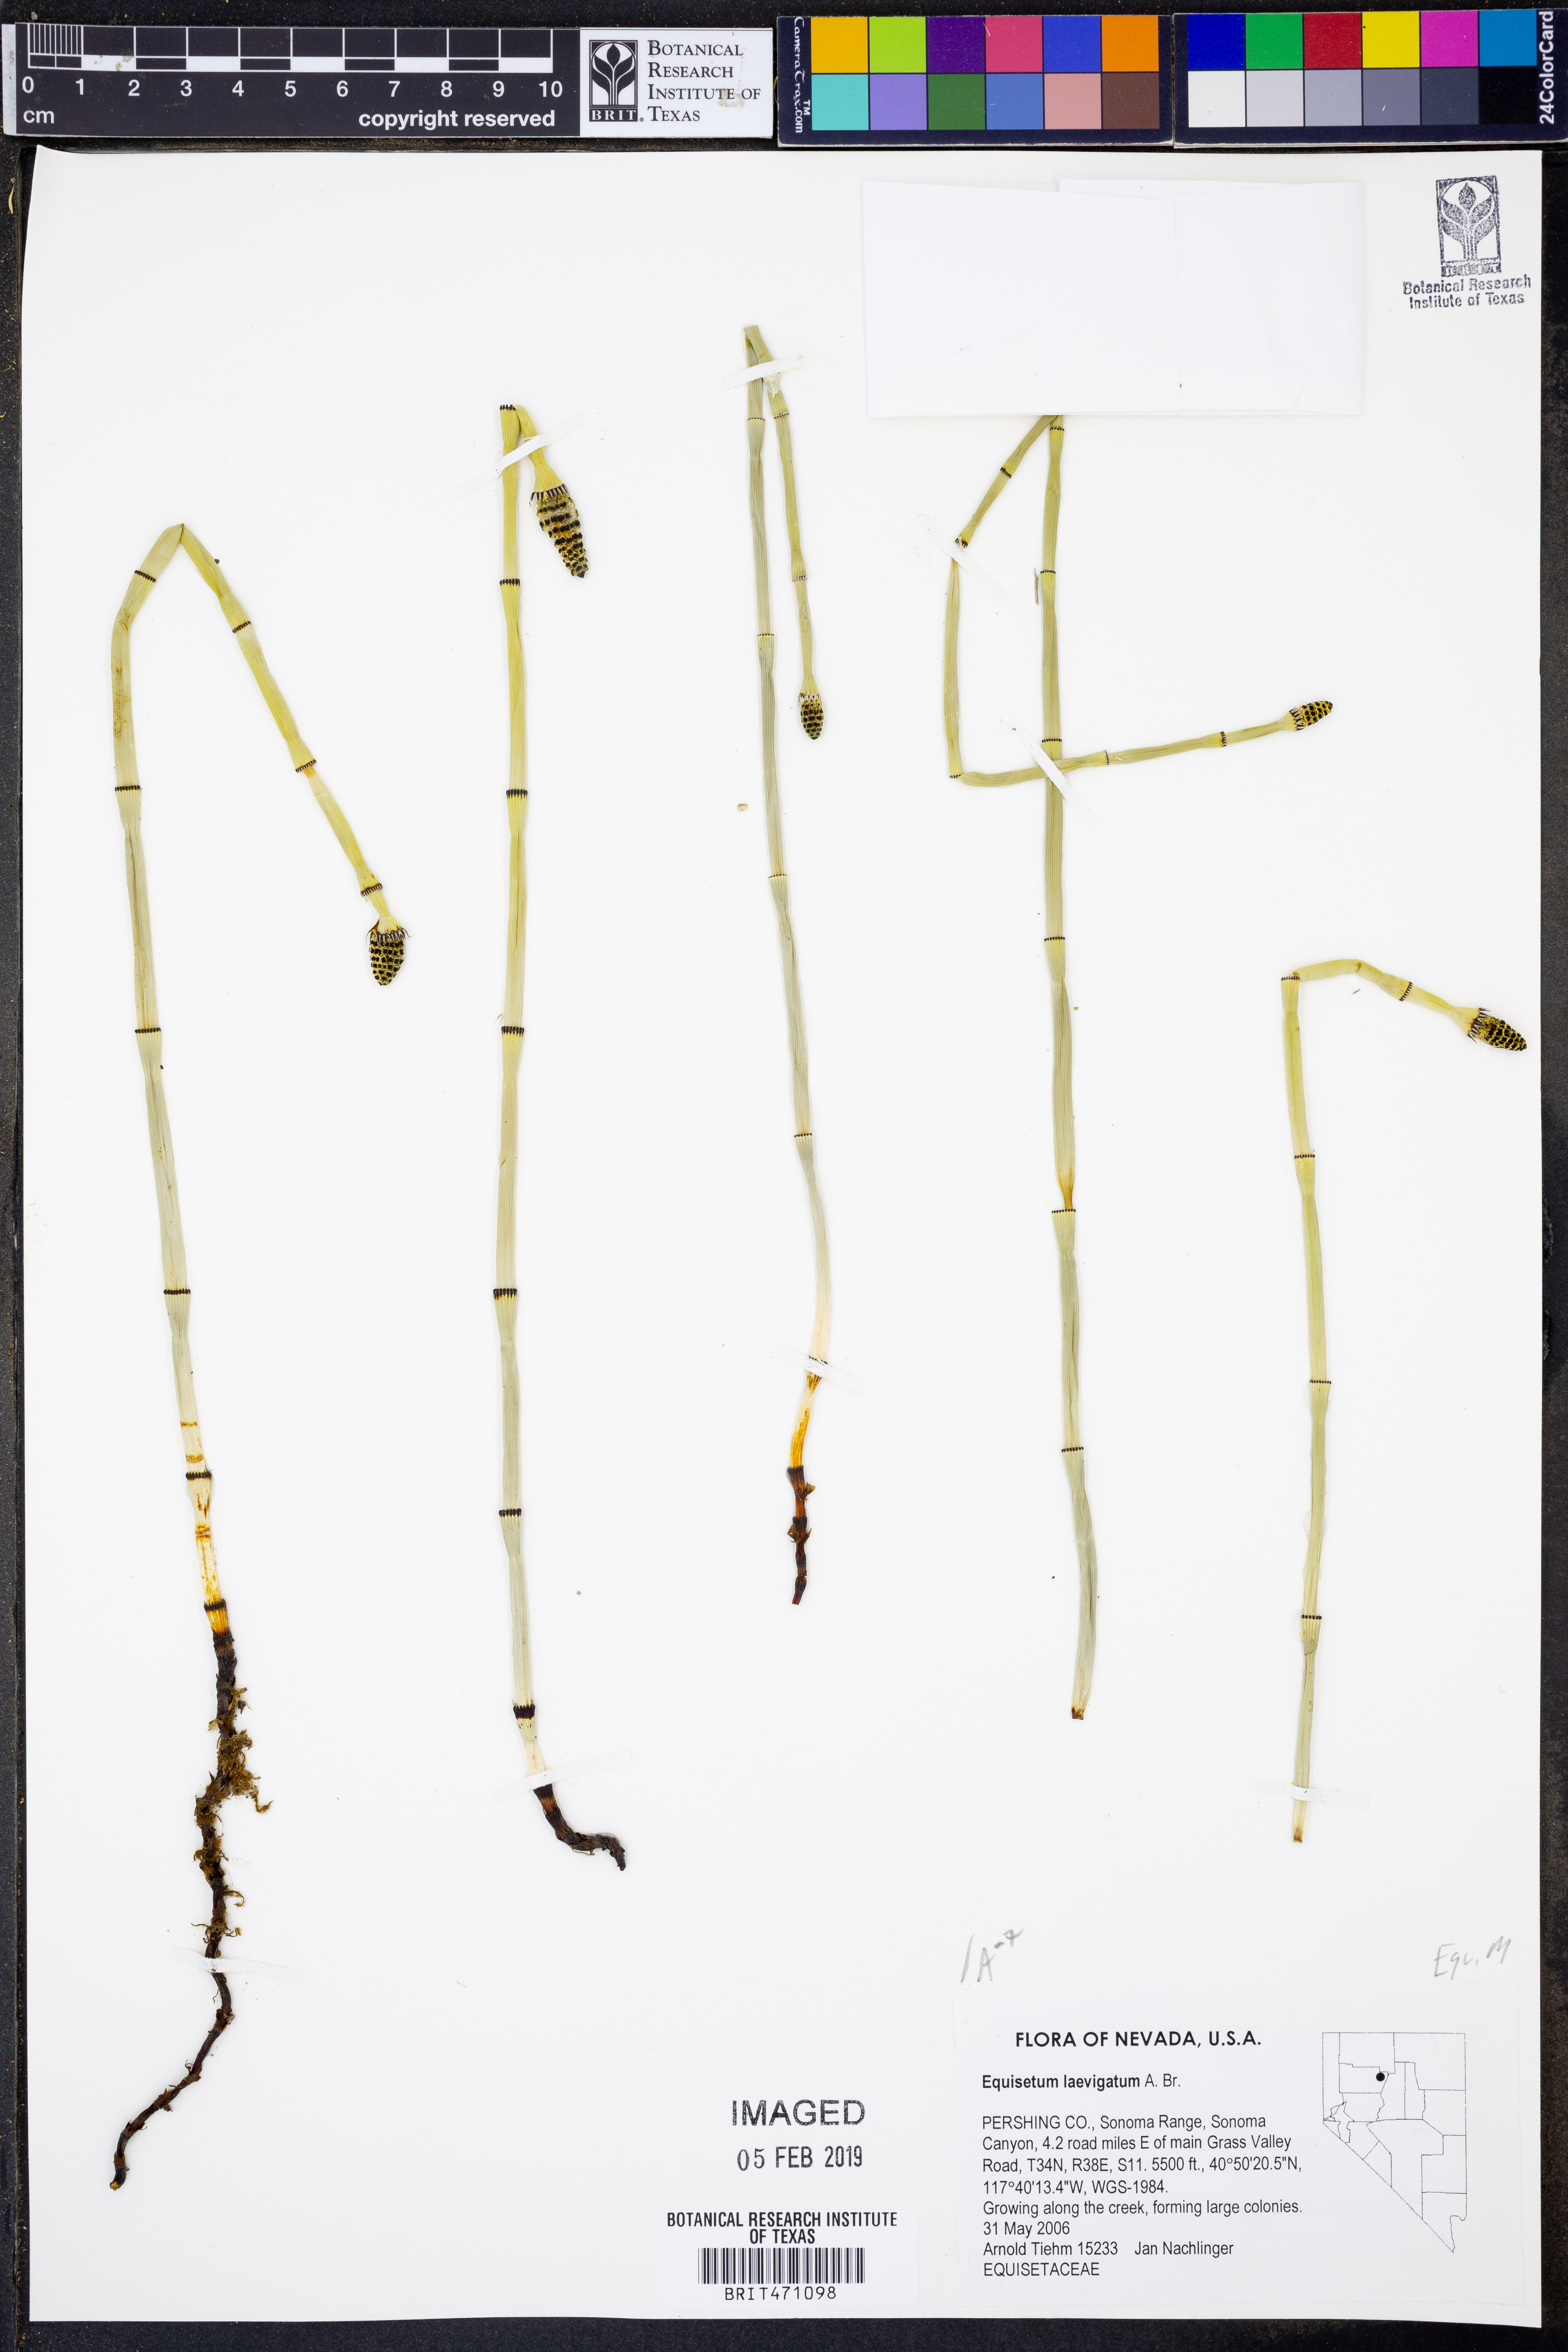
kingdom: Plantae
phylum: Tracheophyta
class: Polypodiopsida
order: Equisetales
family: Equisetaceae
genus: Equisetum
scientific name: Equisetum laevigatum
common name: Smooth scouring-rush
